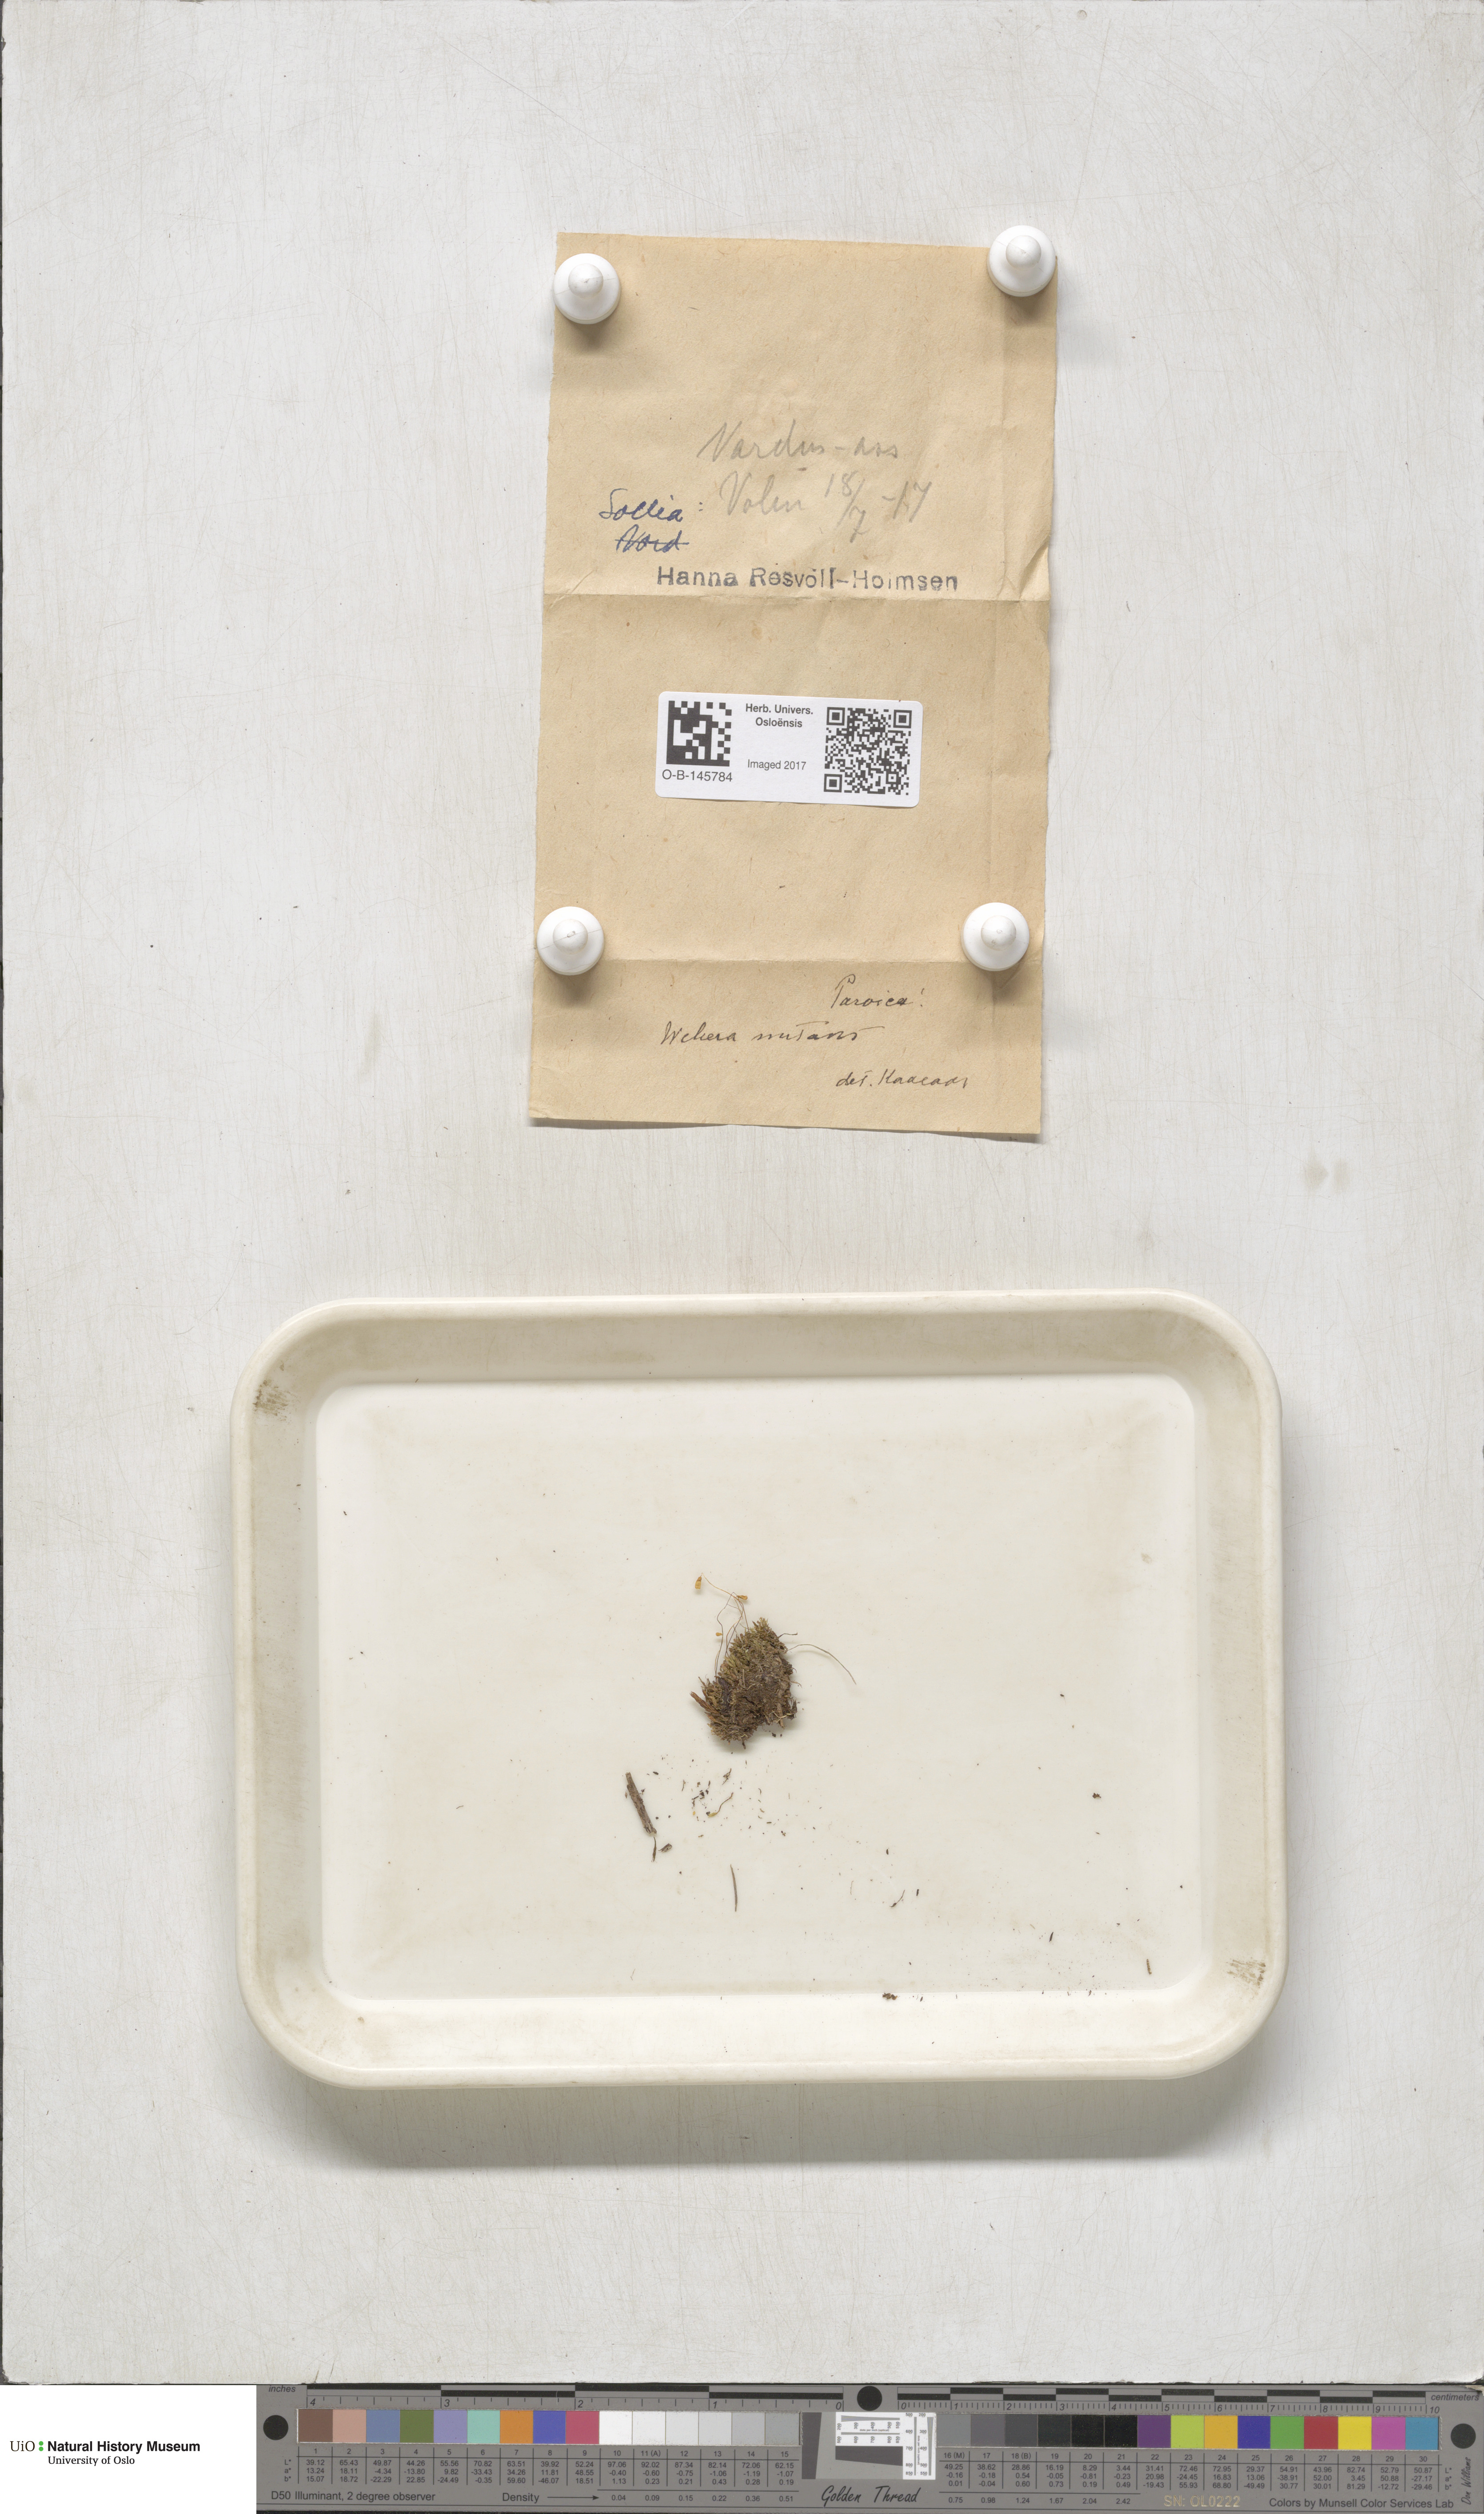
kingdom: Plantae
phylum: Bryophyta
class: Bryopsida
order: Bryales
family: Mniaceae
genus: Pohlia
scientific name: Pohlia nutans
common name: Nodding thread-moss
